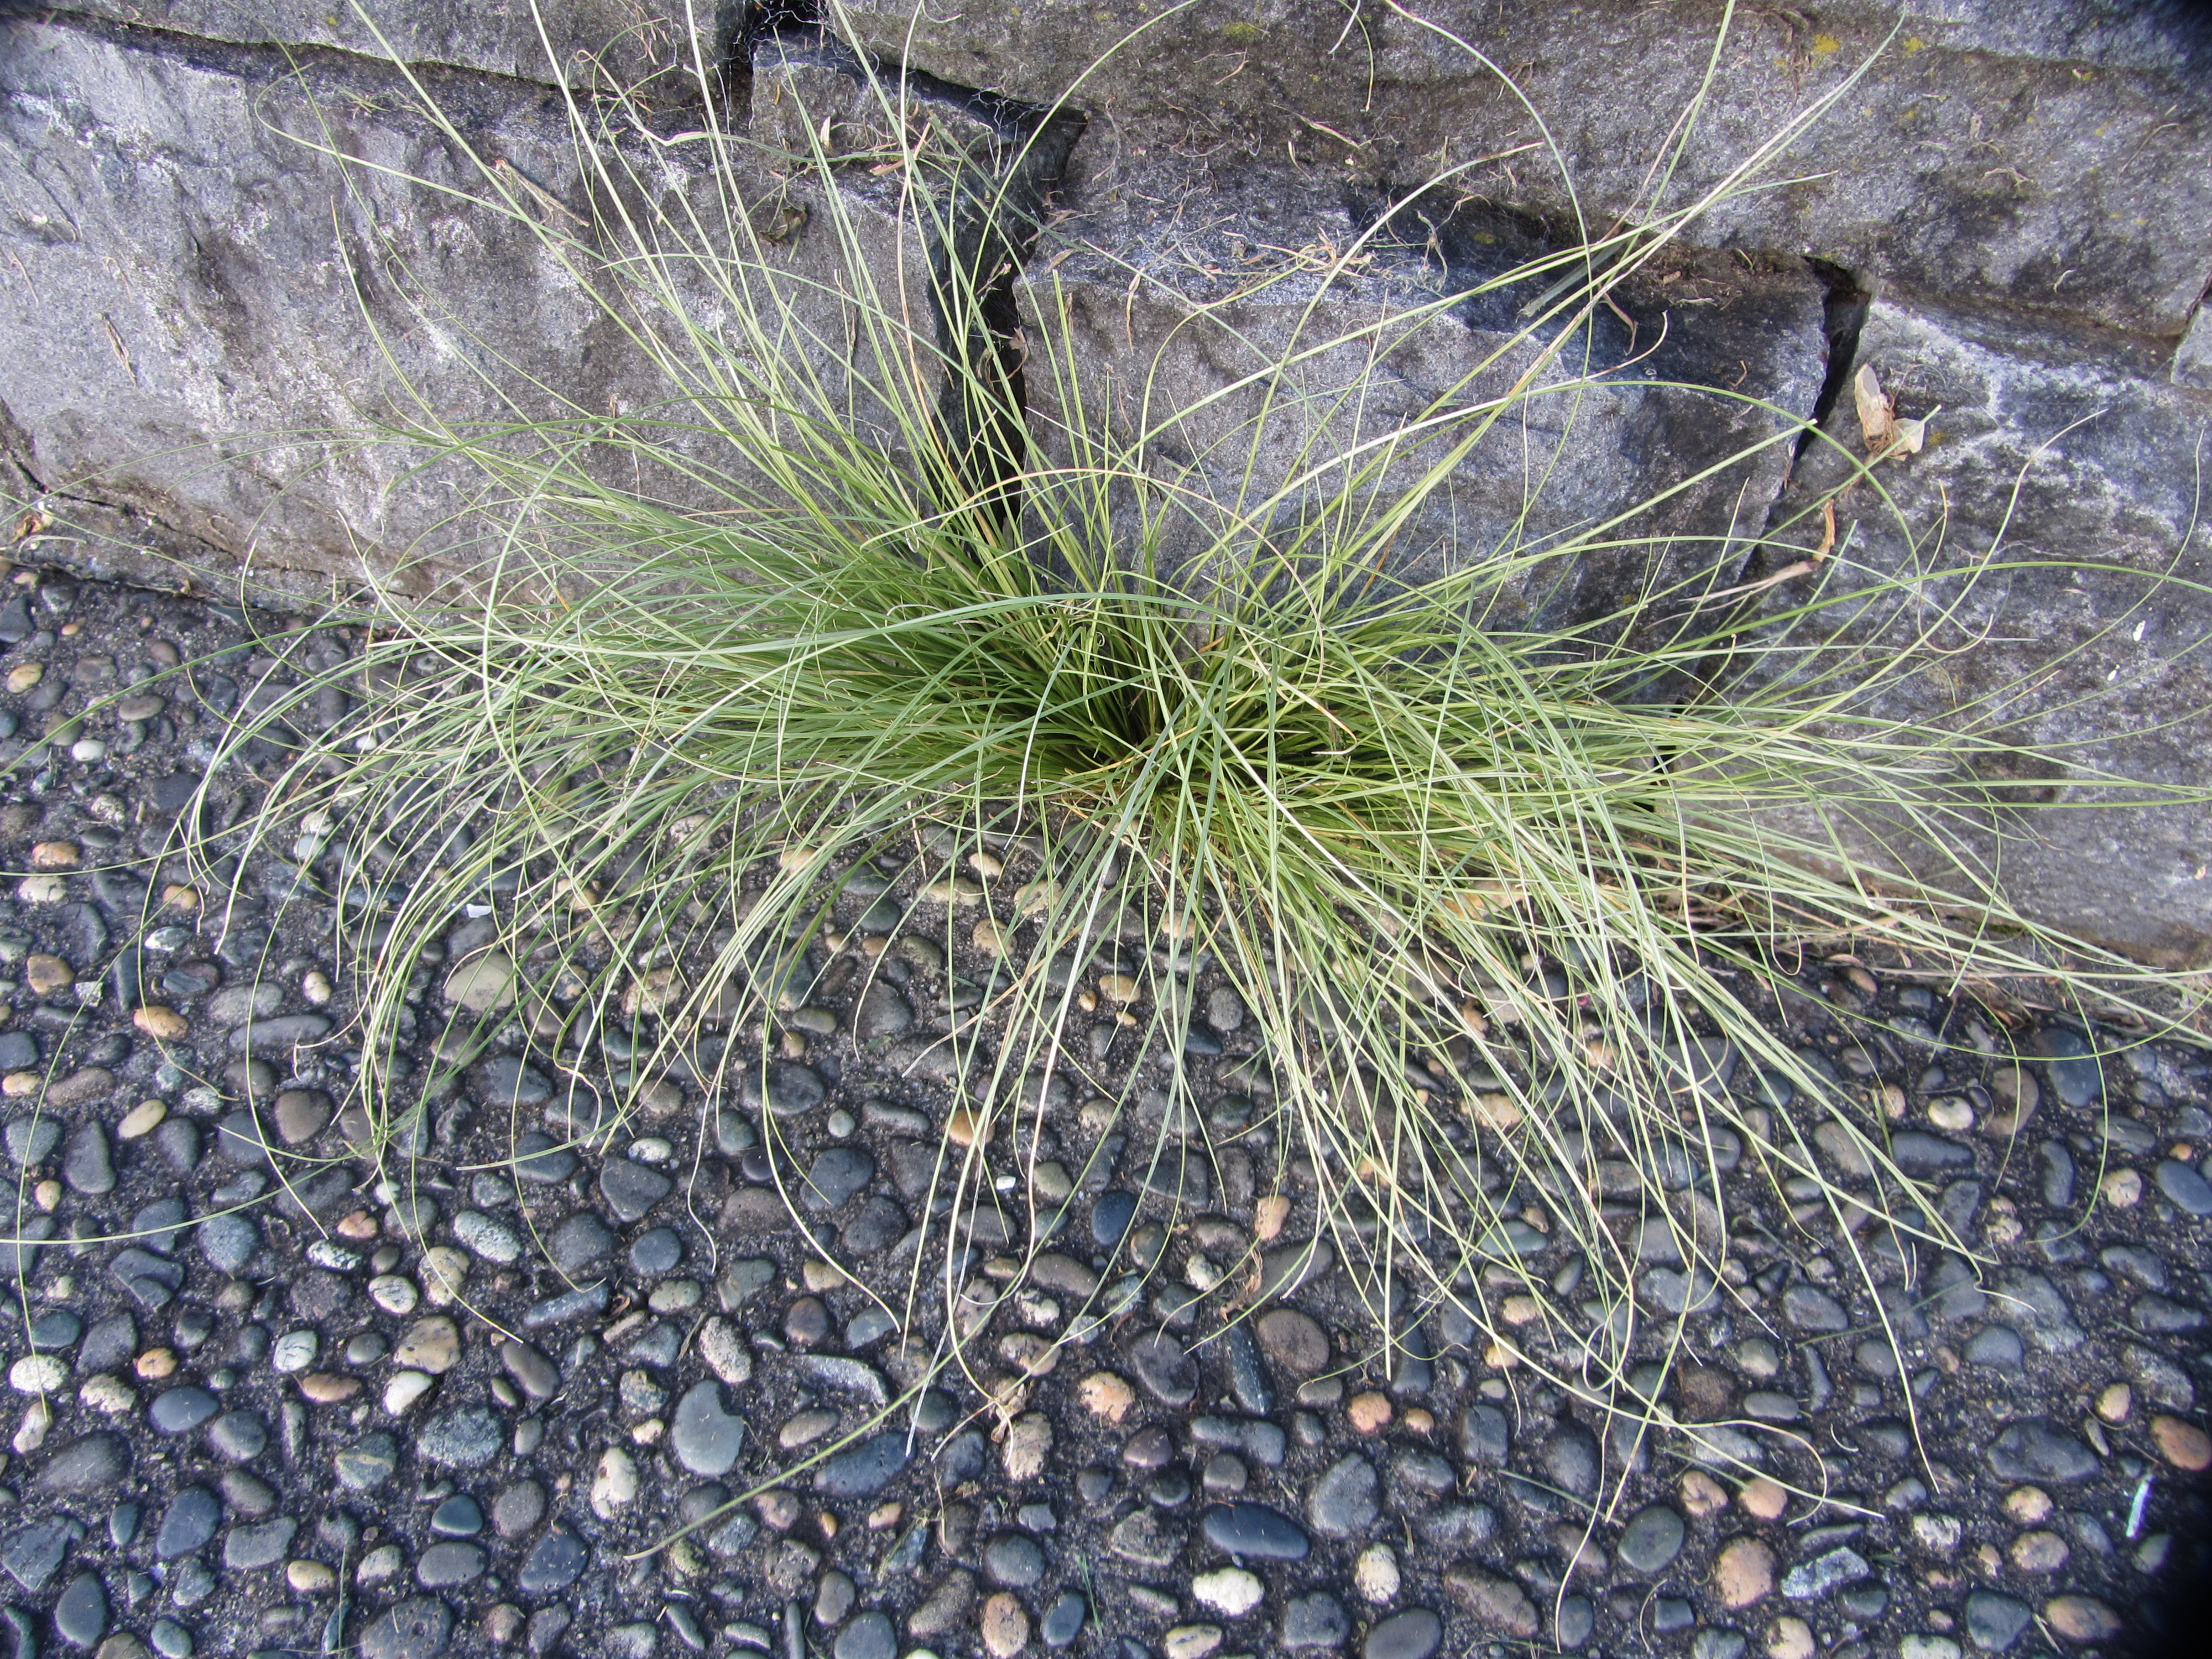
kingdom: Plantae
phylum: Tracheophyta
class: Liliopsida
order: Poales
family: Cyperaceae
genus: Carex
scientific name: Carex comans
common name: Longwood tussock
